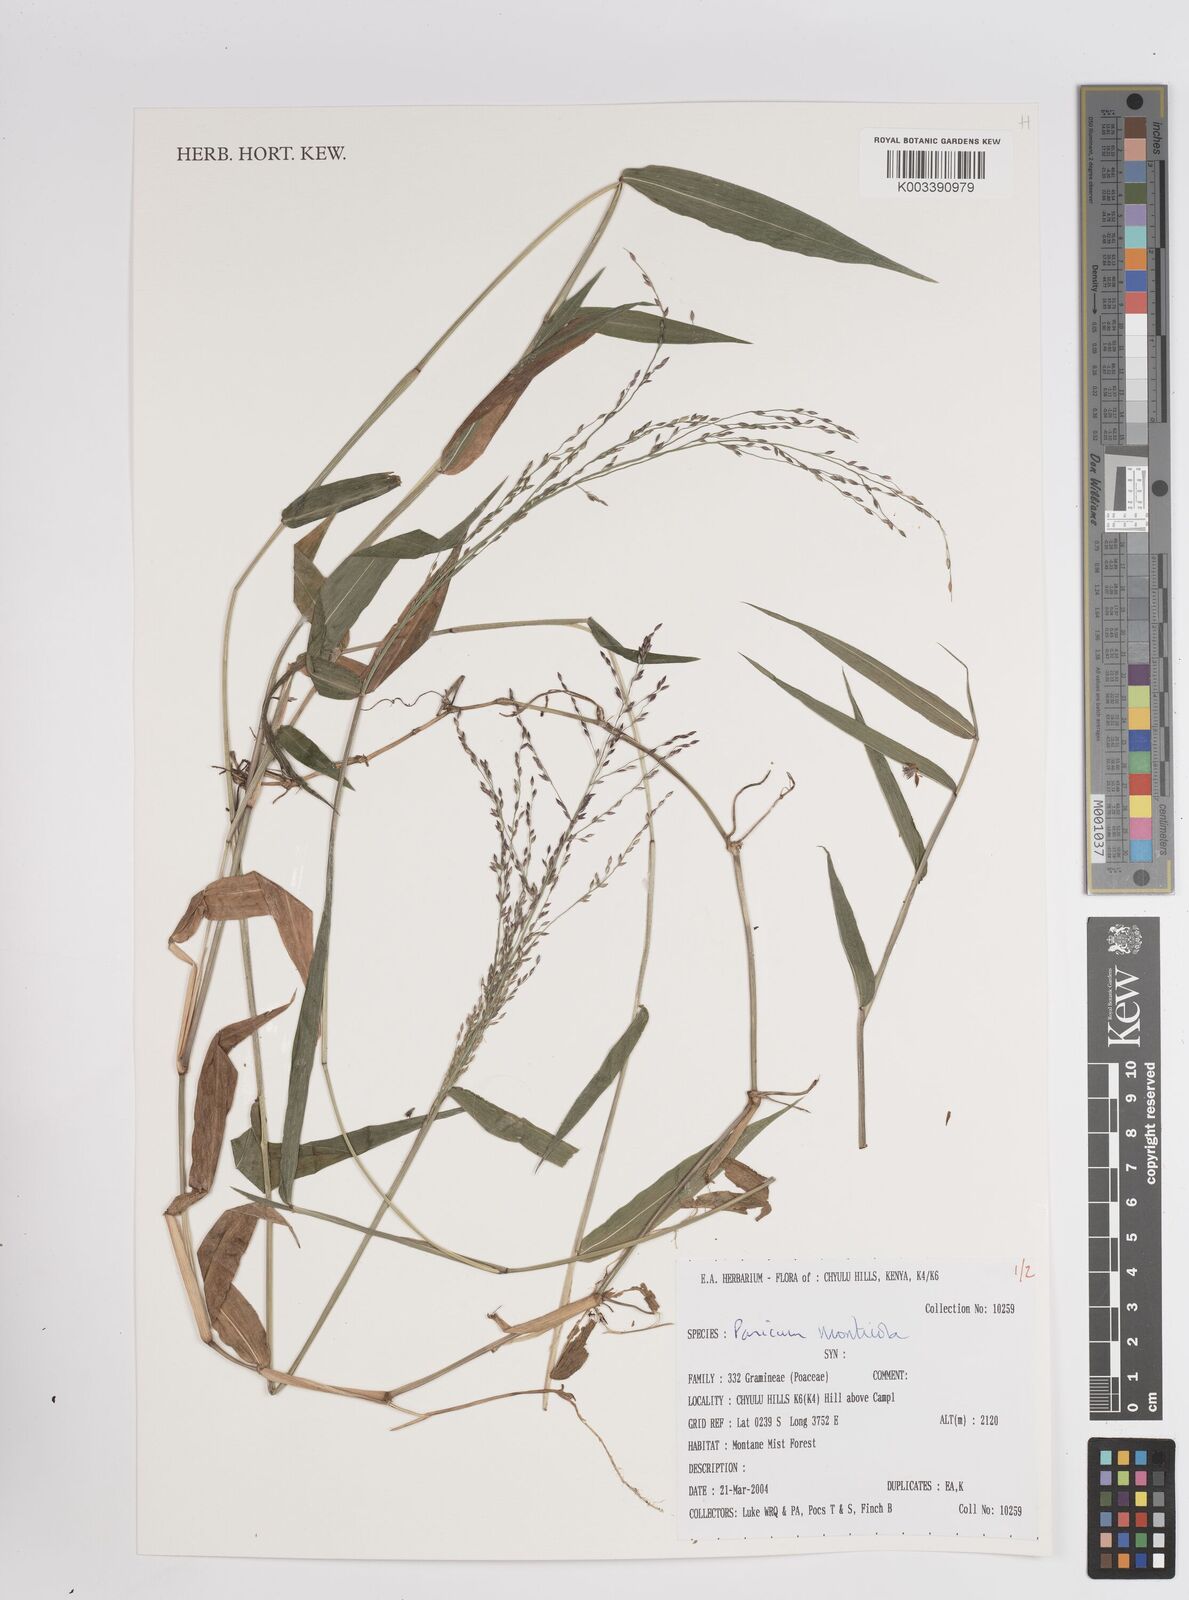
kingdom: Plantae
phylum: Tracheophyta
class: Liliopsida
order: Poales
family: Poaceae
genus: Panicum
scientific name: Panicum monticola
